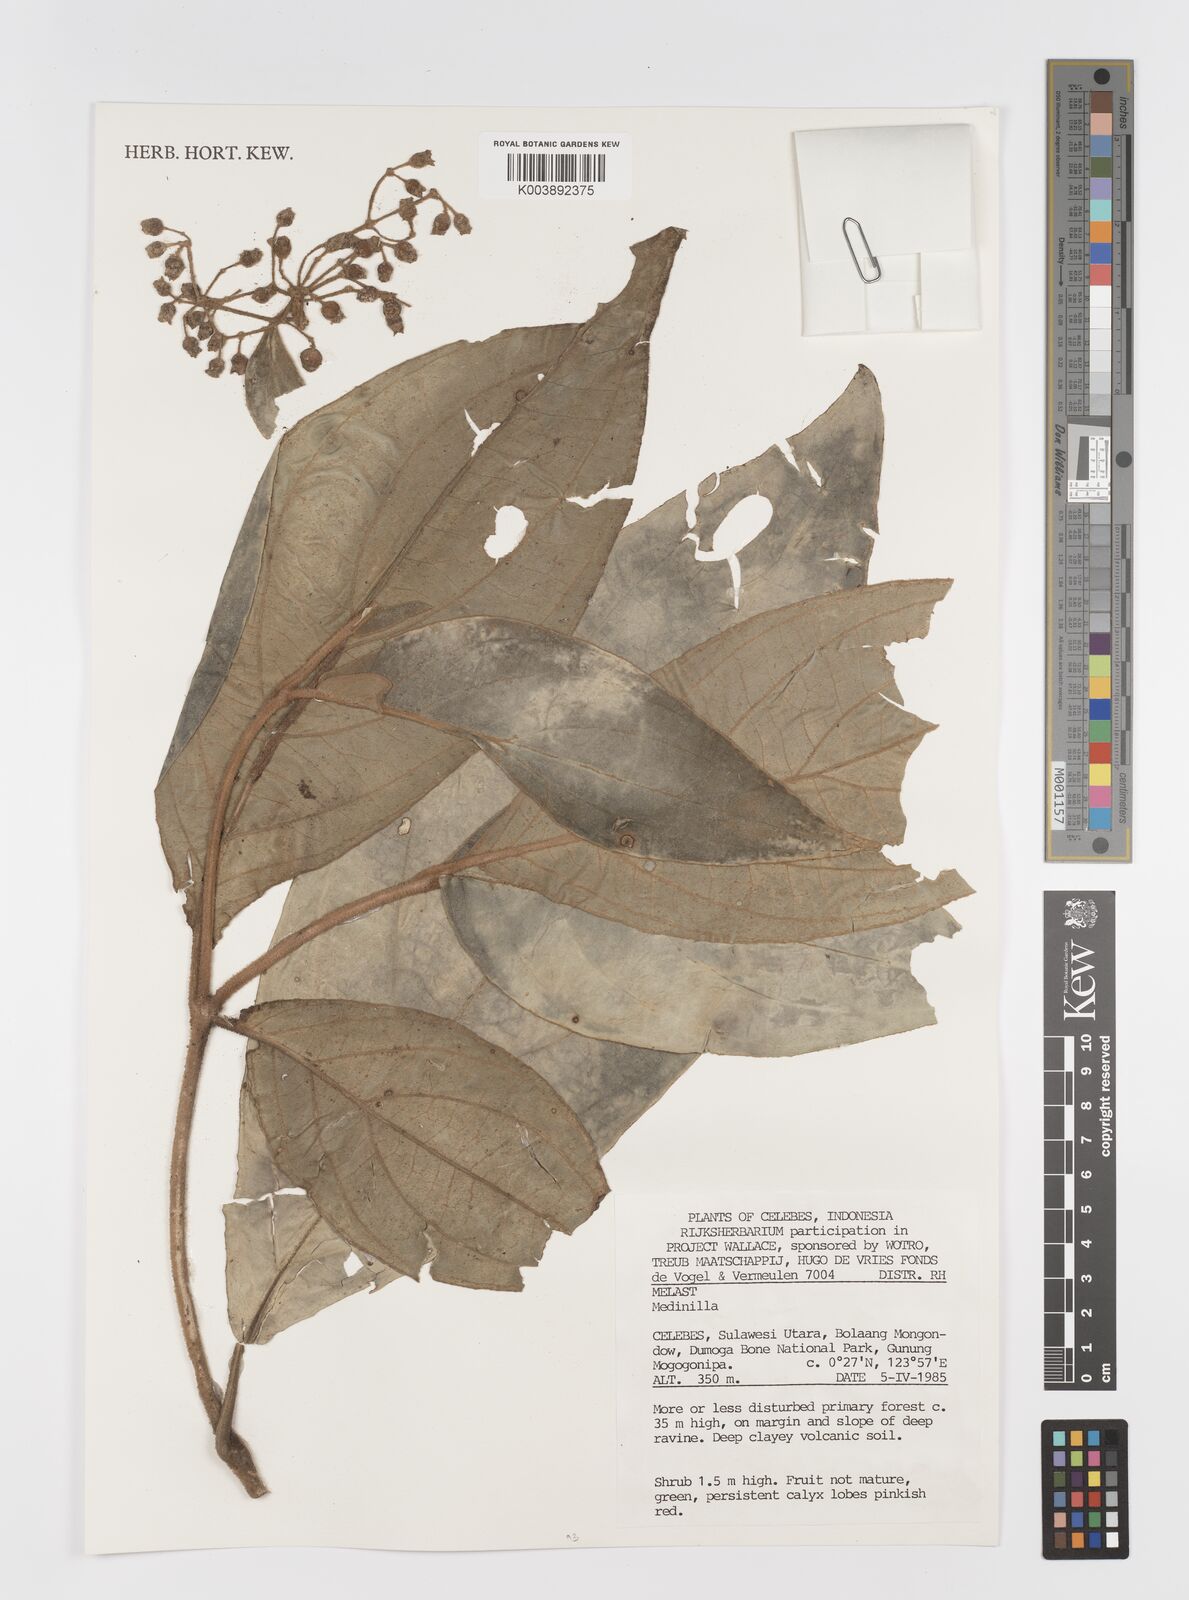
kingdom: Plantae
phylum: Tracheophyta
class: Magnoliopsida
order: Myrtales
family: Melastomataceae
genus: Medinilla
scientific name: Medinilla
